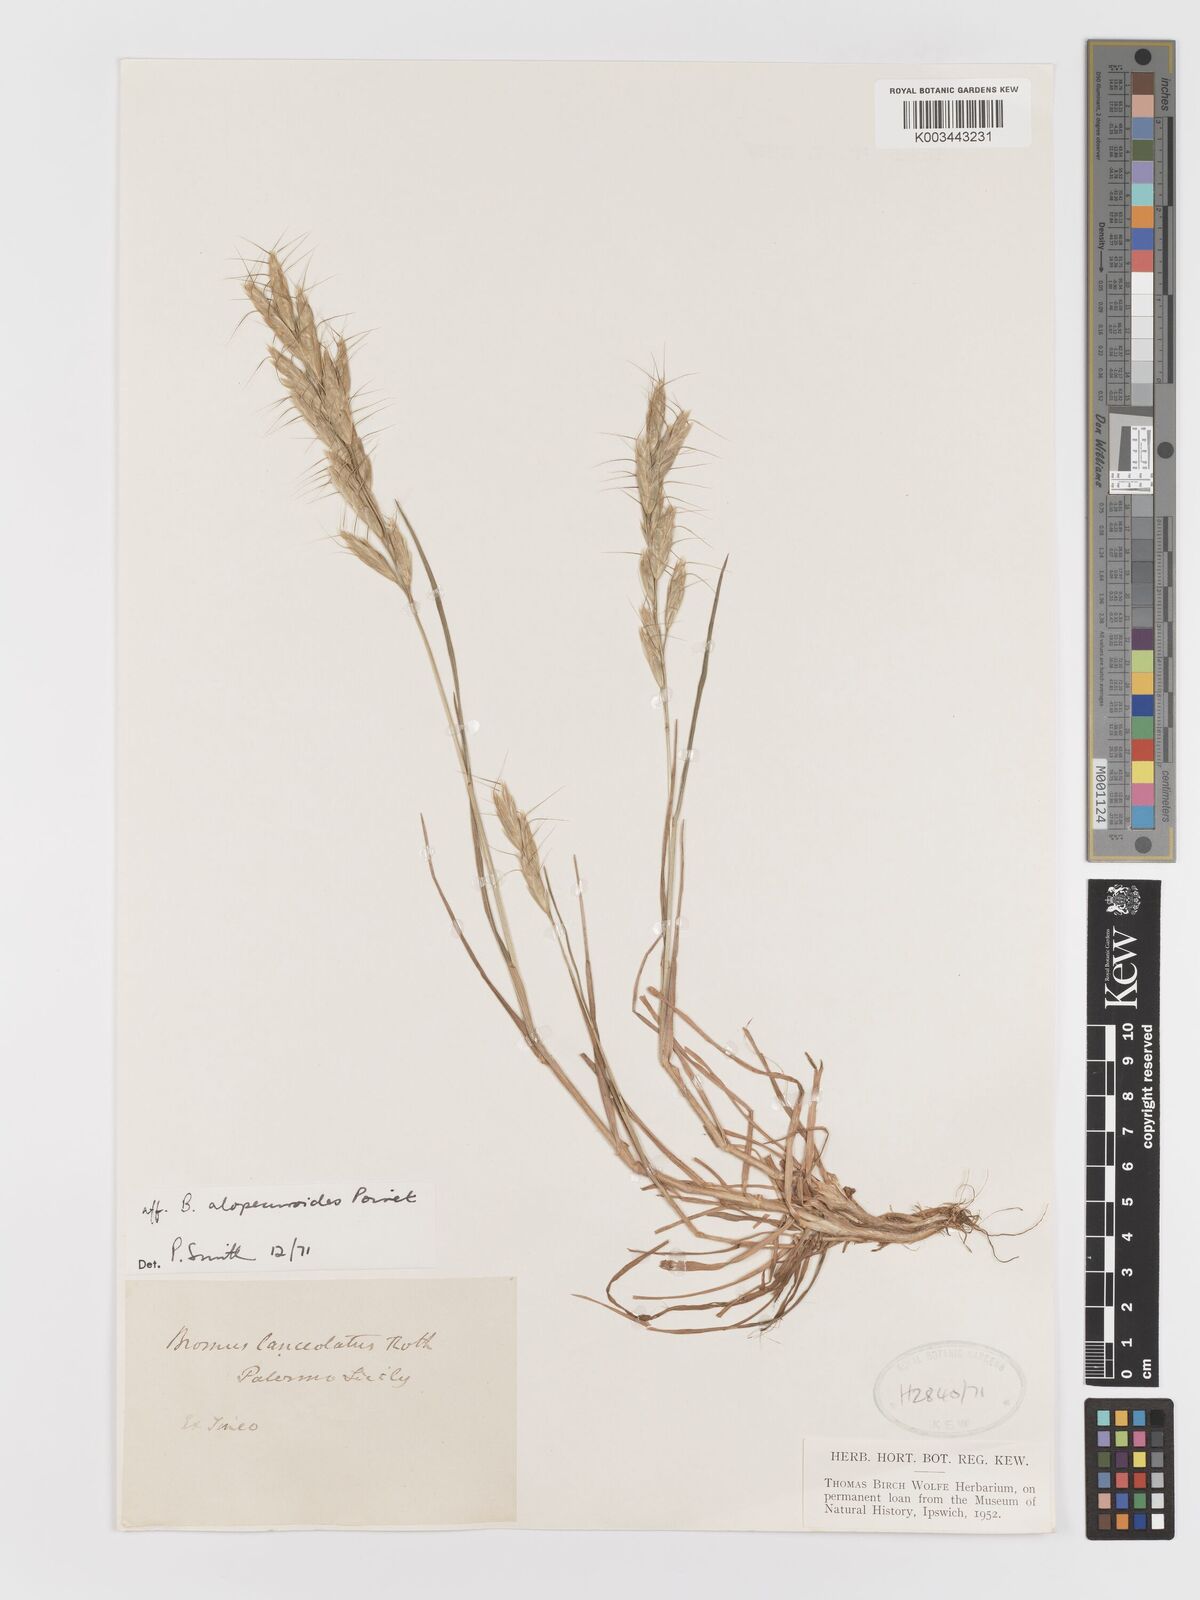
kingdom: Plantae
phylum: Tracheophyta
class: Liliopsida
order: Poales
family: Poaceae
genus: Bromus
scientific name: Bromus
